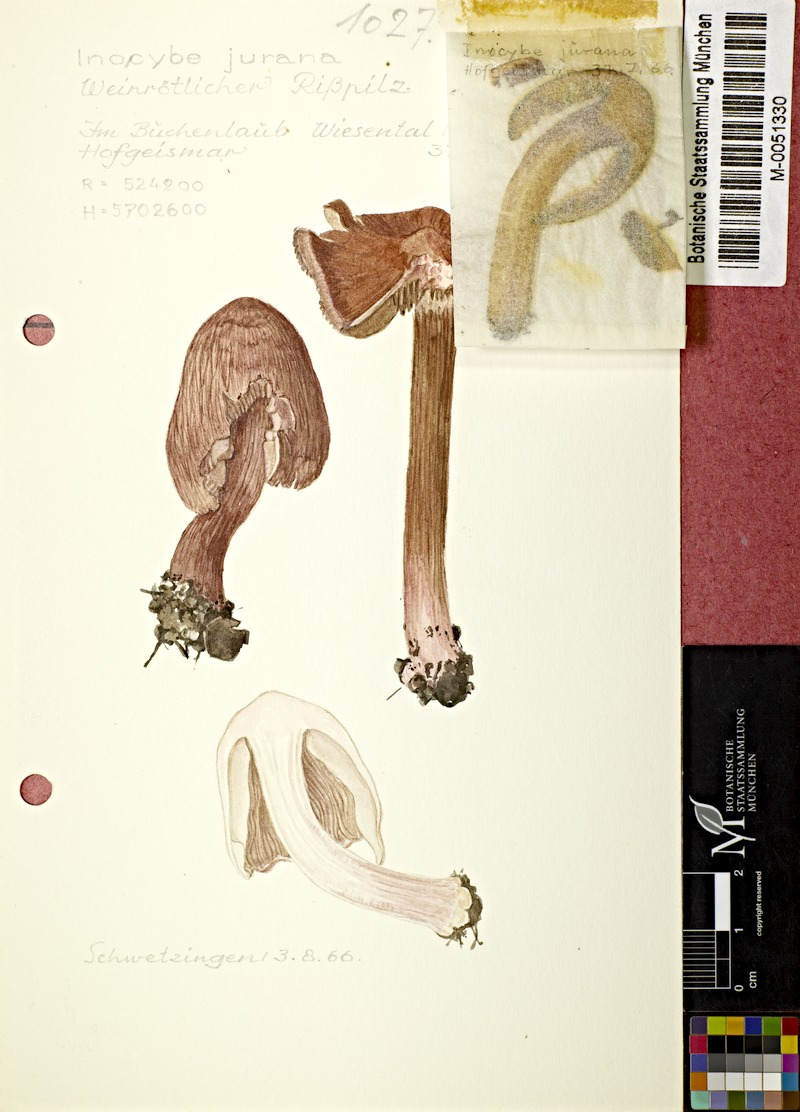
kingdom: Fungi
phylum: Basidiomycota
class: Agaricomycetes
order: Agaricales
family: Inocybaceae
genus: Inosperma
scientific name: Inosperma adaequatum
